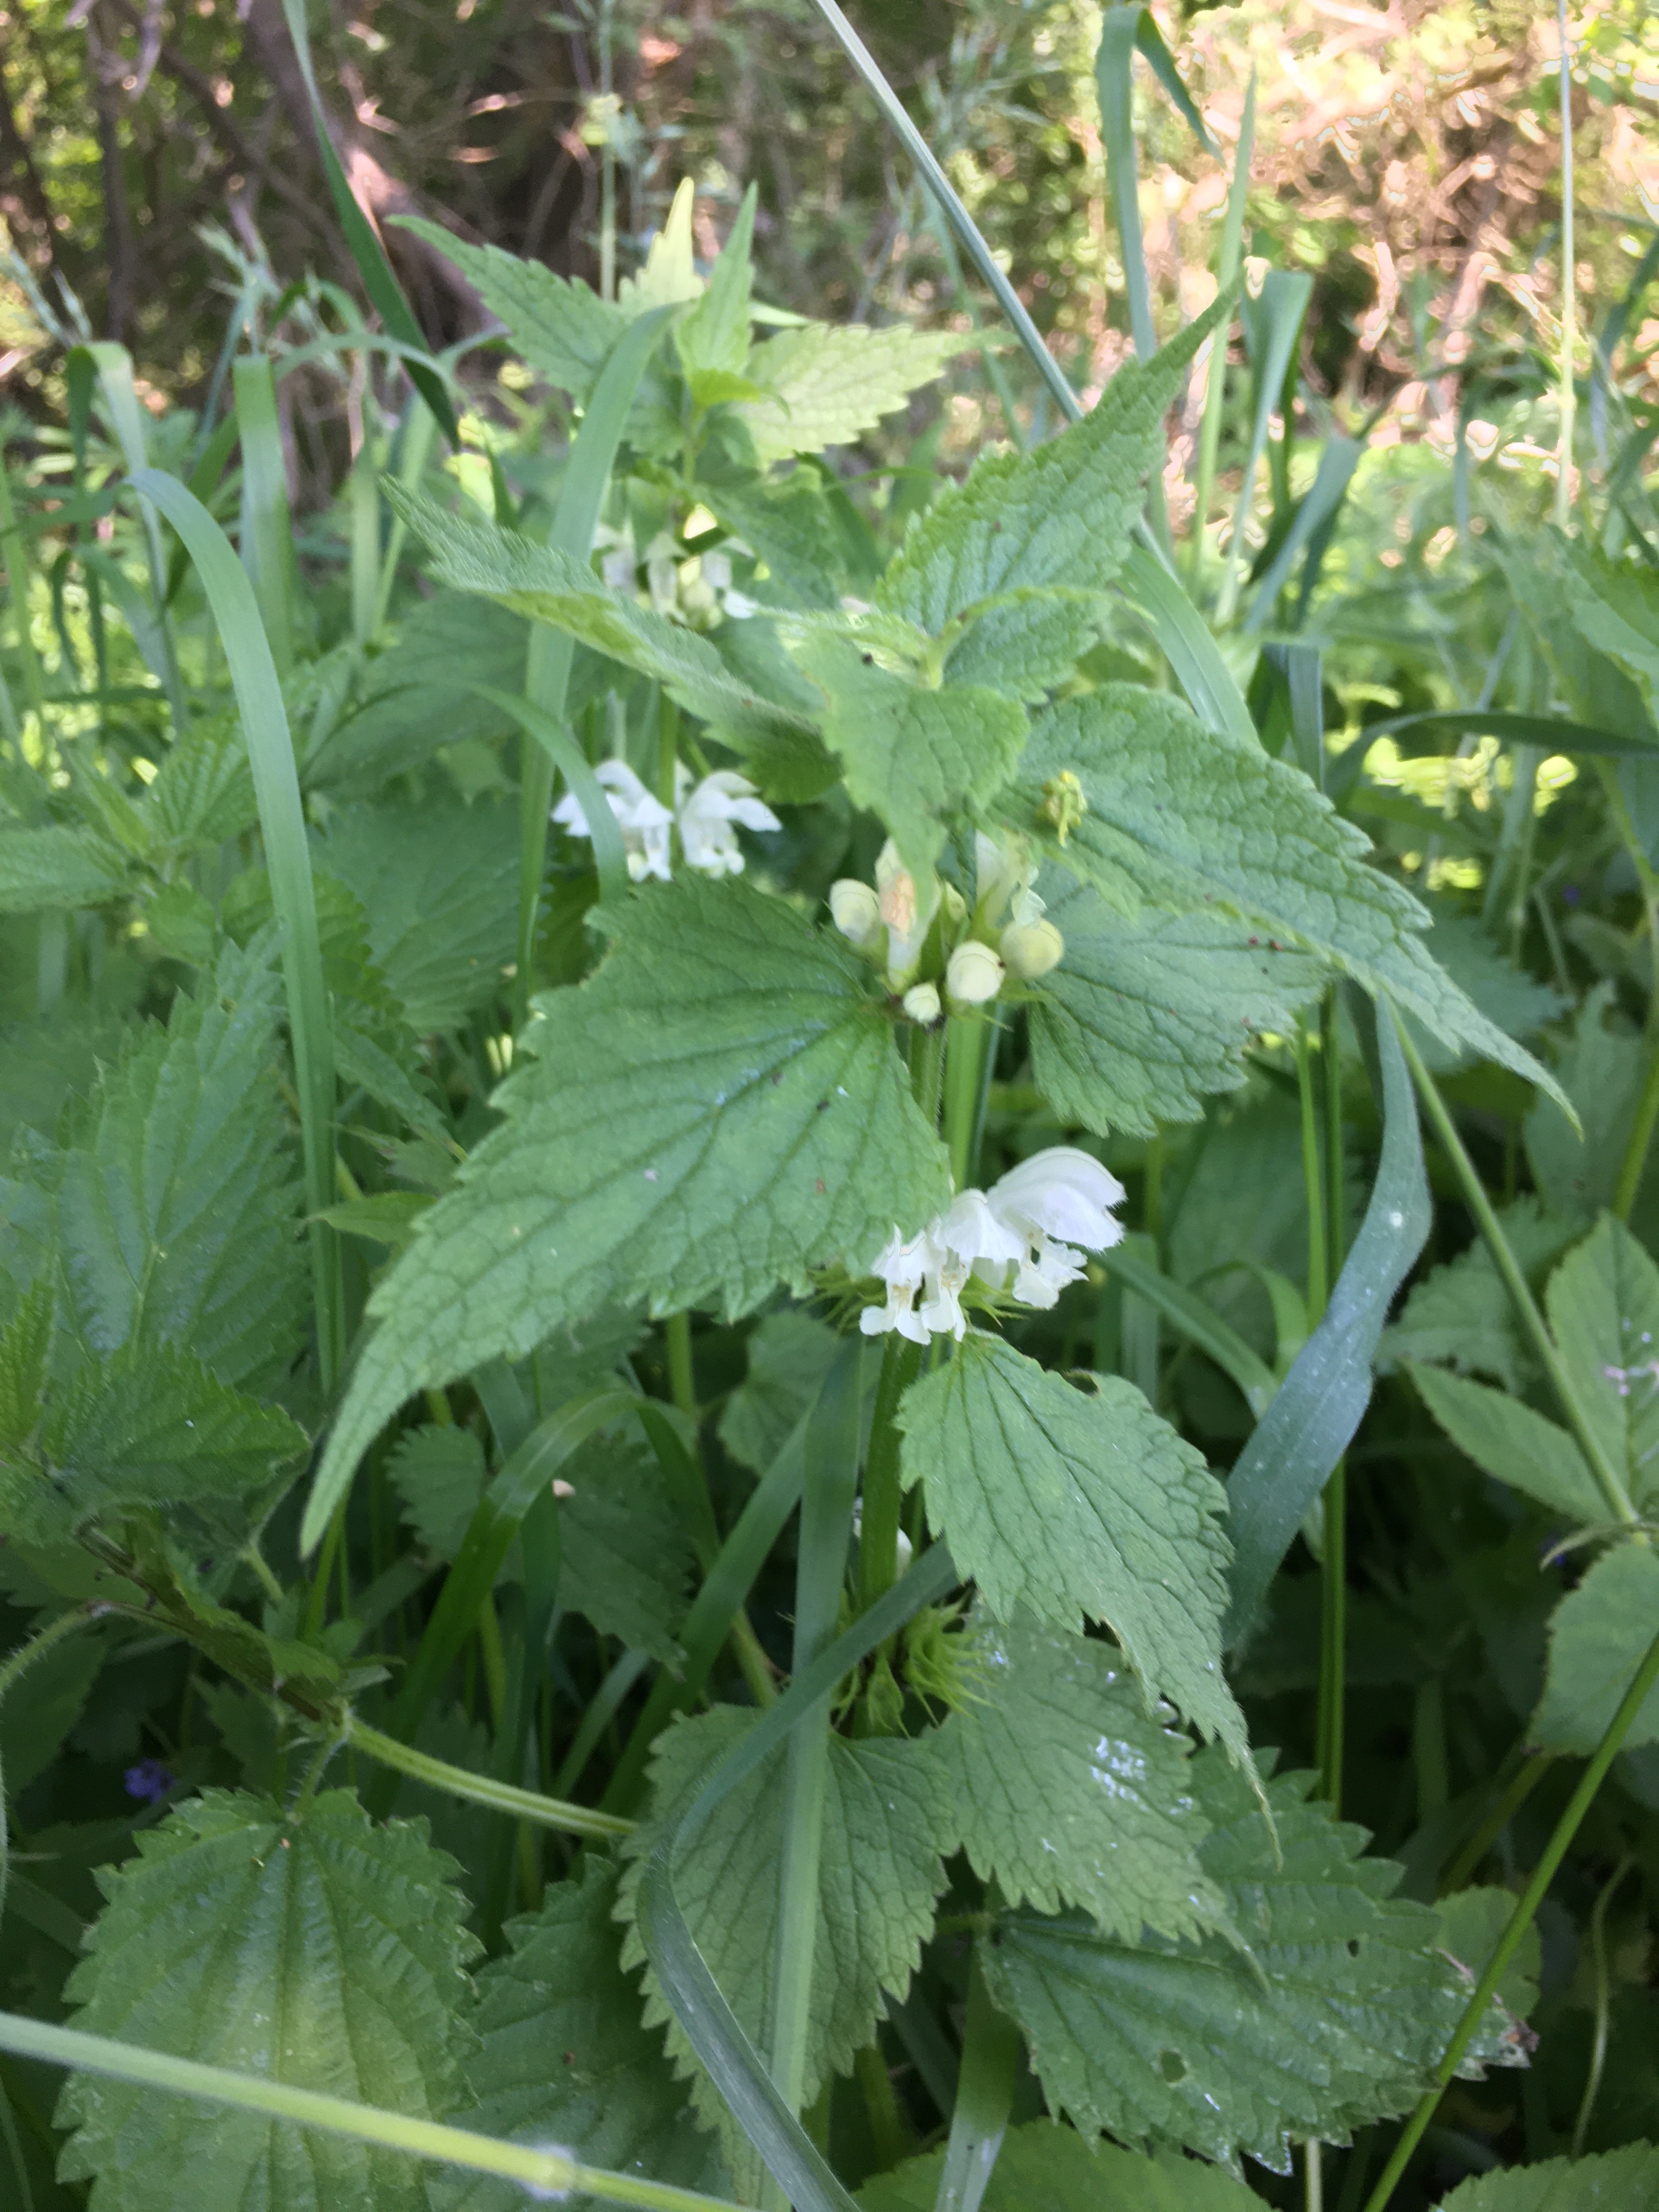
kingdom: Plantae
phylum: Tracheophyta
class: Magnoliopsida
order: Lamiales
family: Lamiaceae
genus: Lamium
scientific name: Lamium album
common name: Døvnælde
